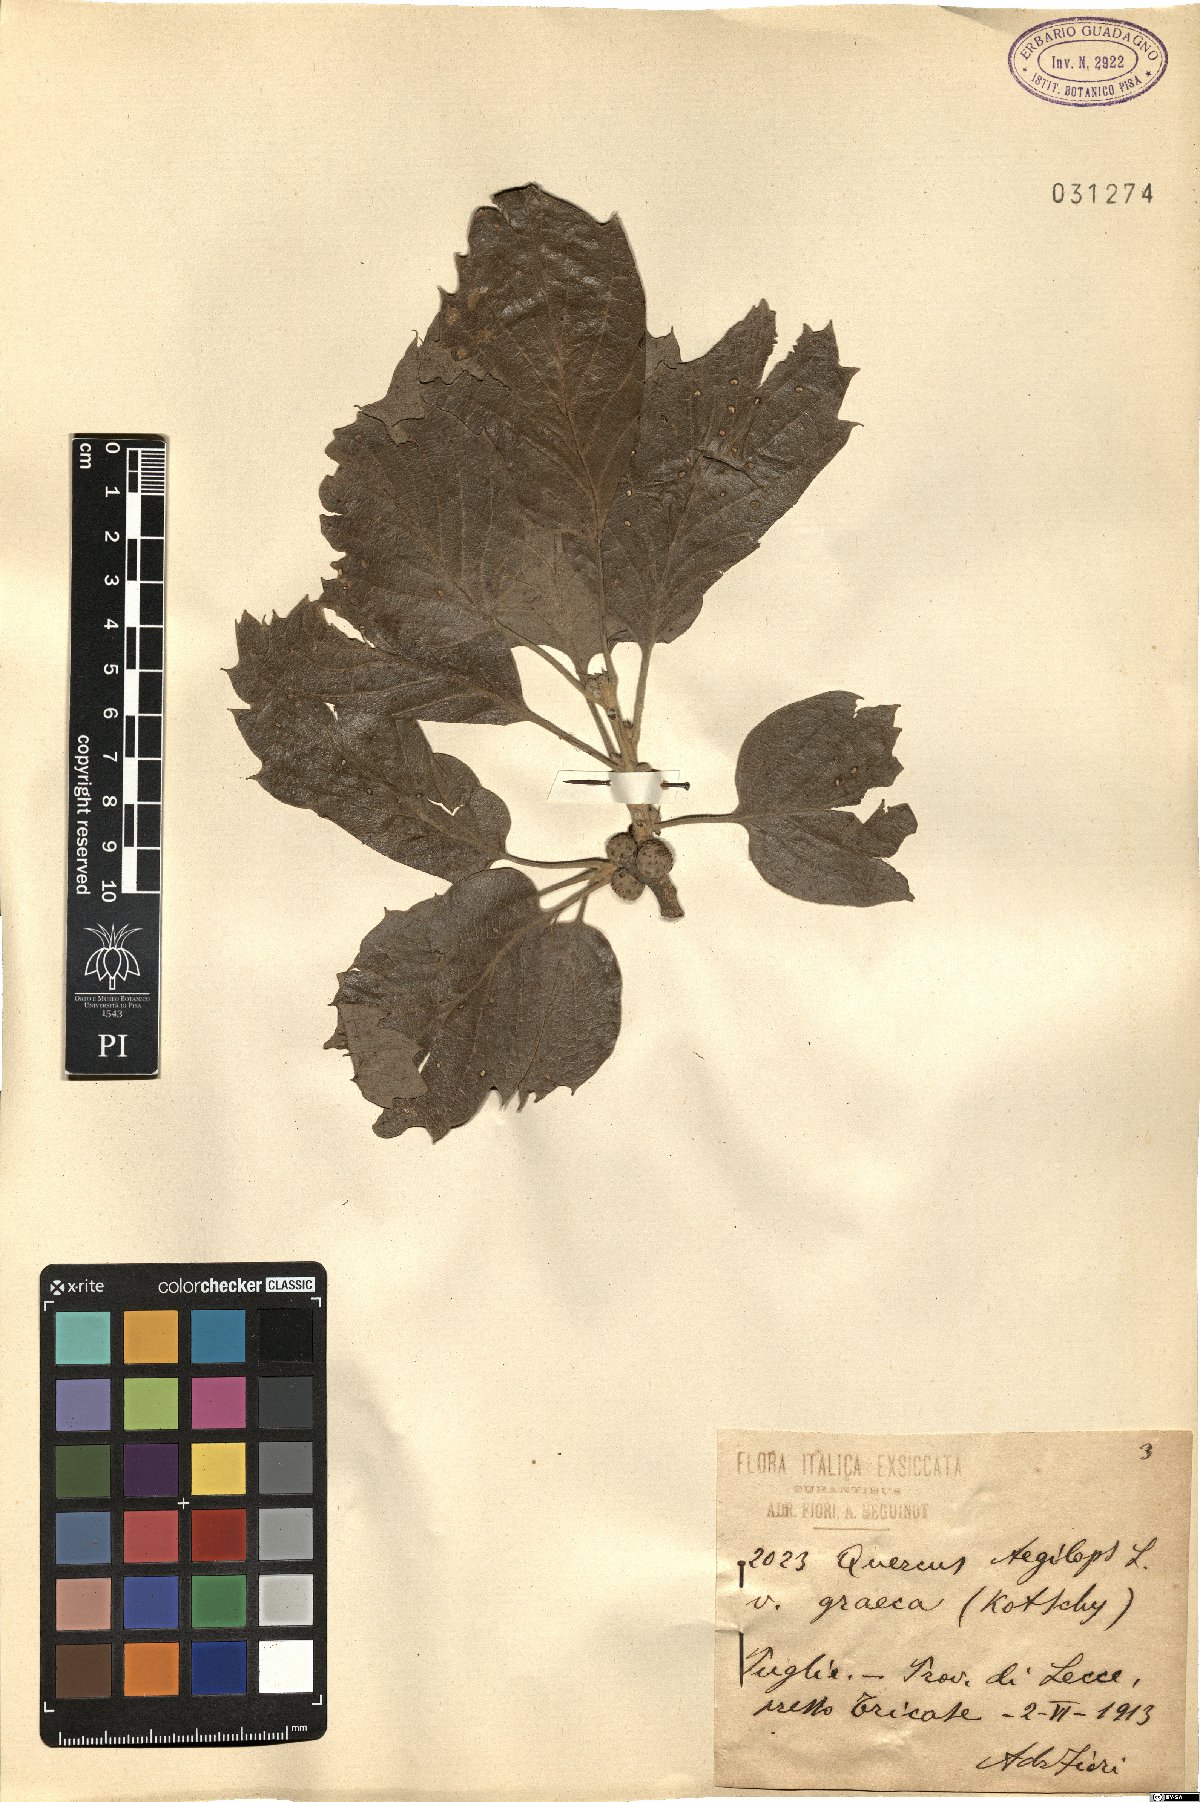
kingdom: Plantae
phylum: Tracheophyta
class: Magnoliopsida
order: Fagales
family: Fagaceae
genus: Quercus
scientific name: Quercus ithaburensis
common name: Tabor oak
